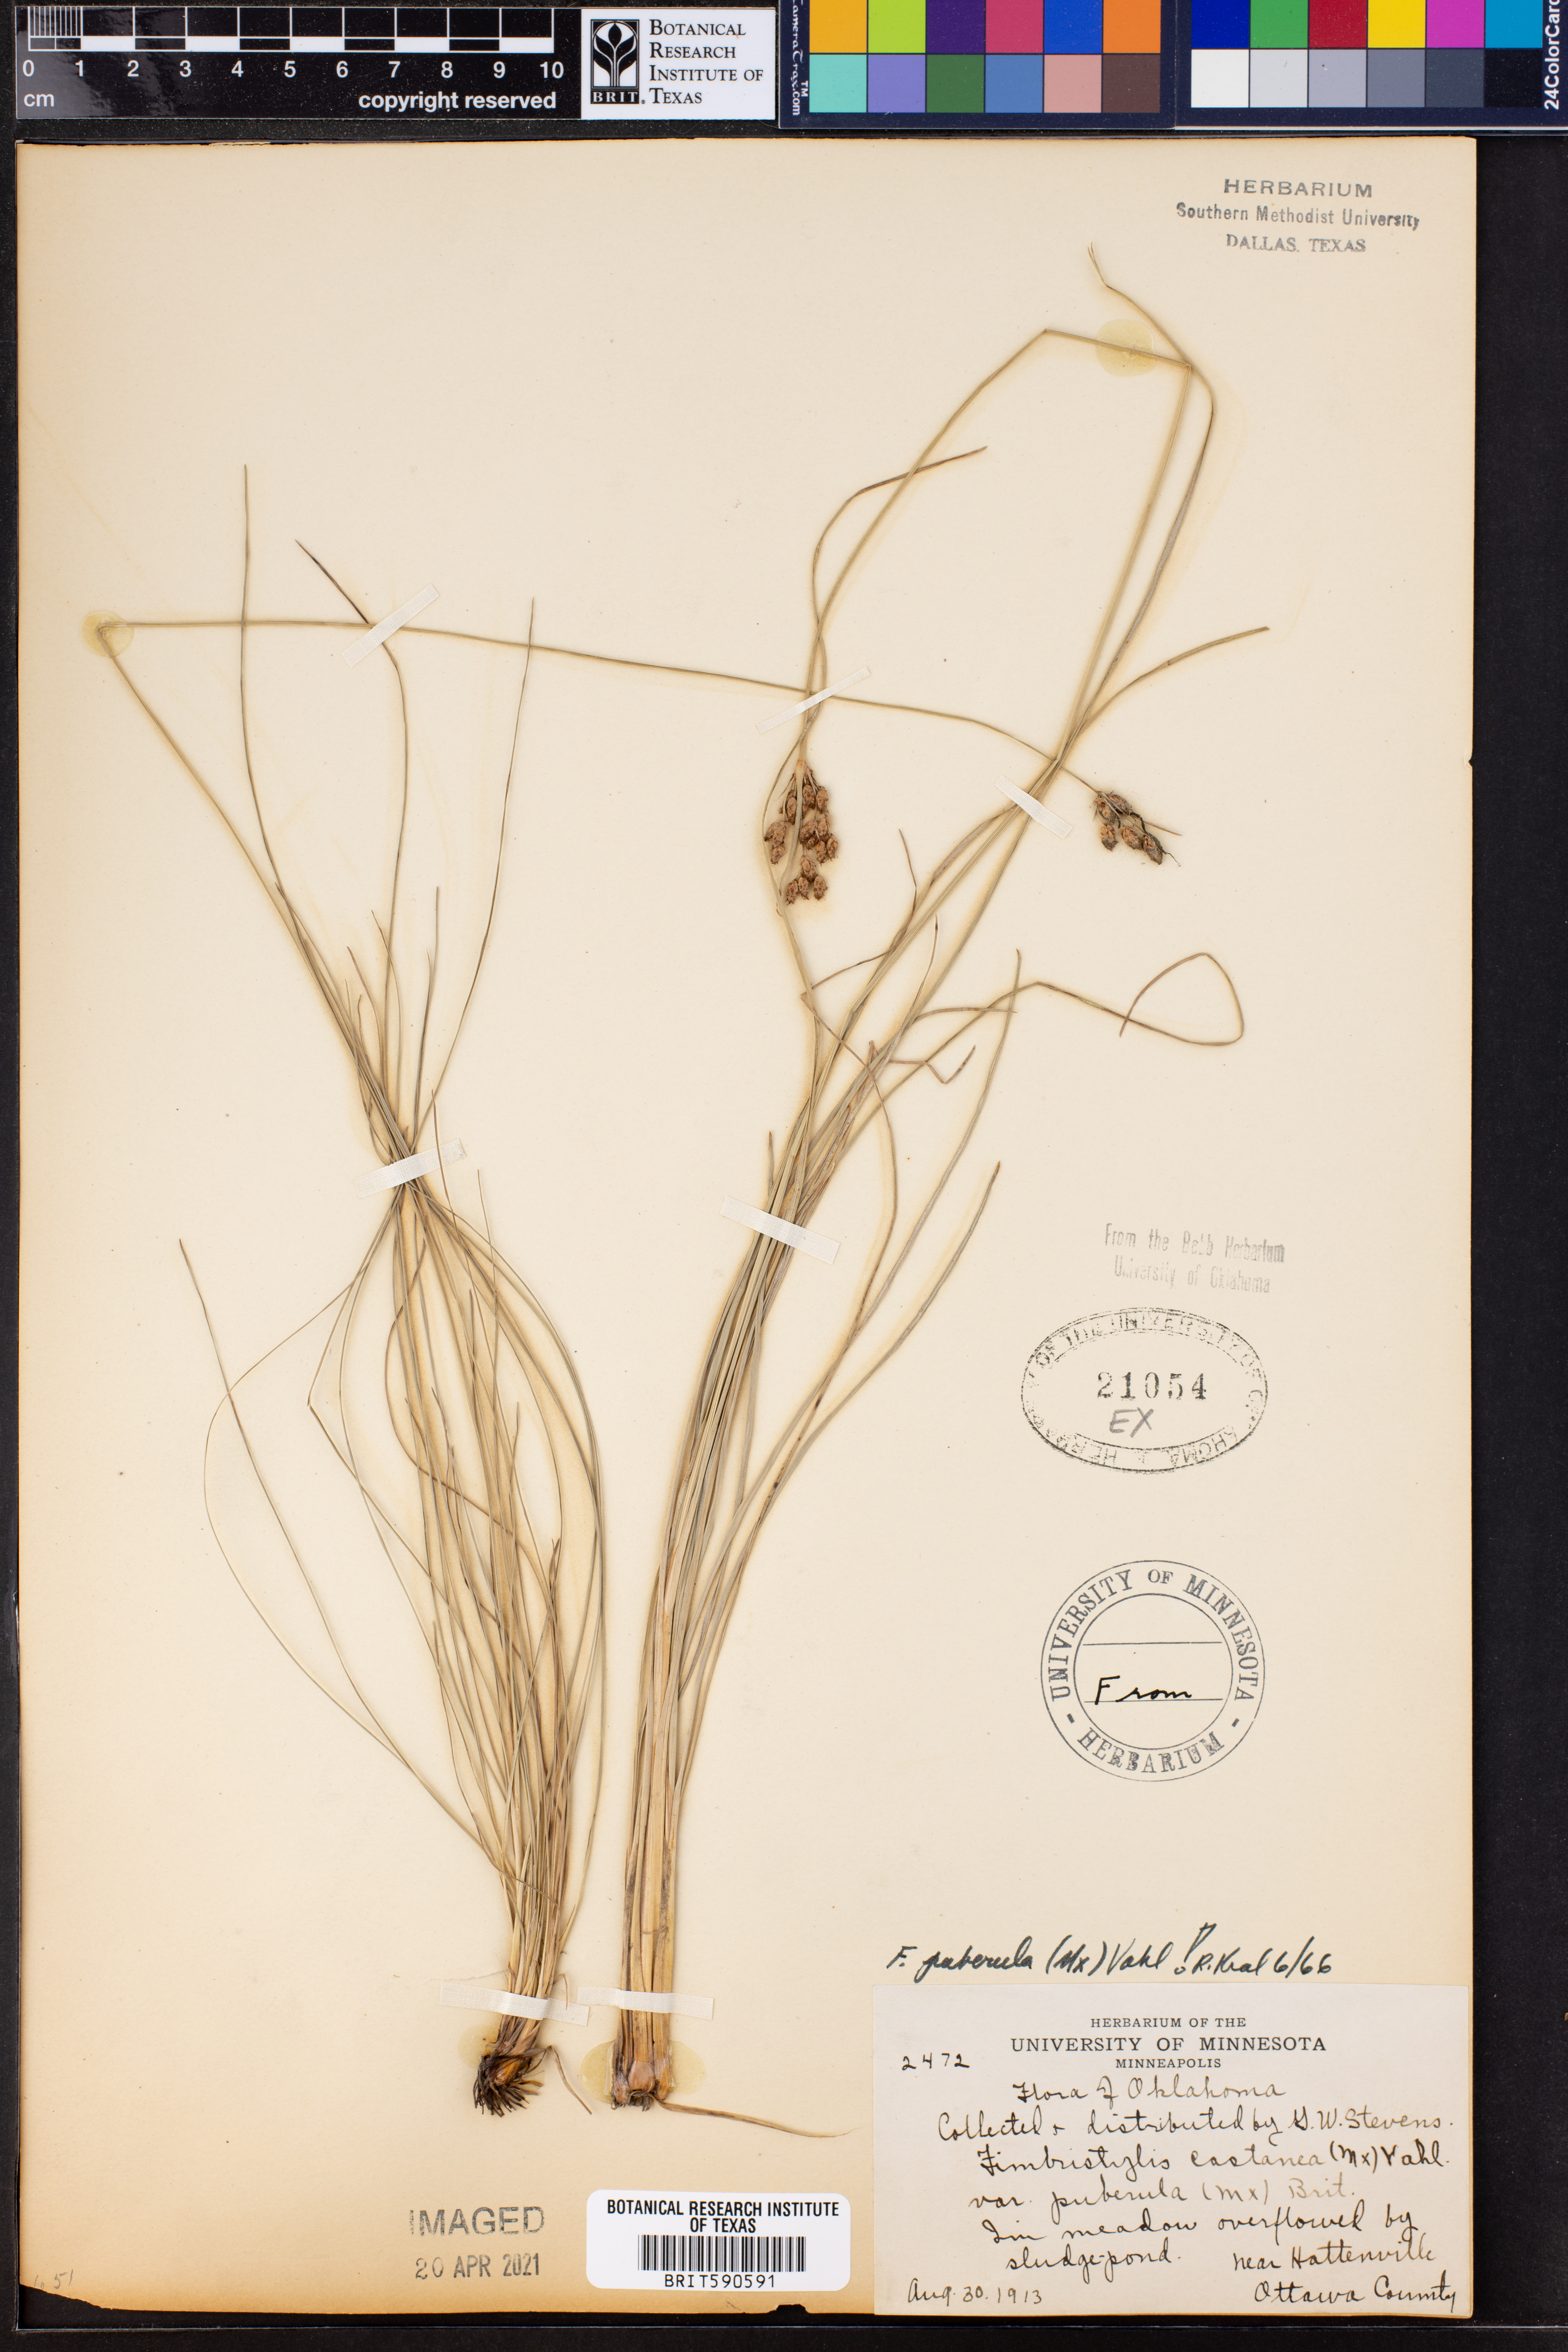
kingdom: Plantae
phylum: Tracheophyta
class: Liliopsida
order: Poales
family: Cyperaceae
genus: Fimbristylis
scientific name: Fimbristylis puberula
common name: Hairy fimbristylis
